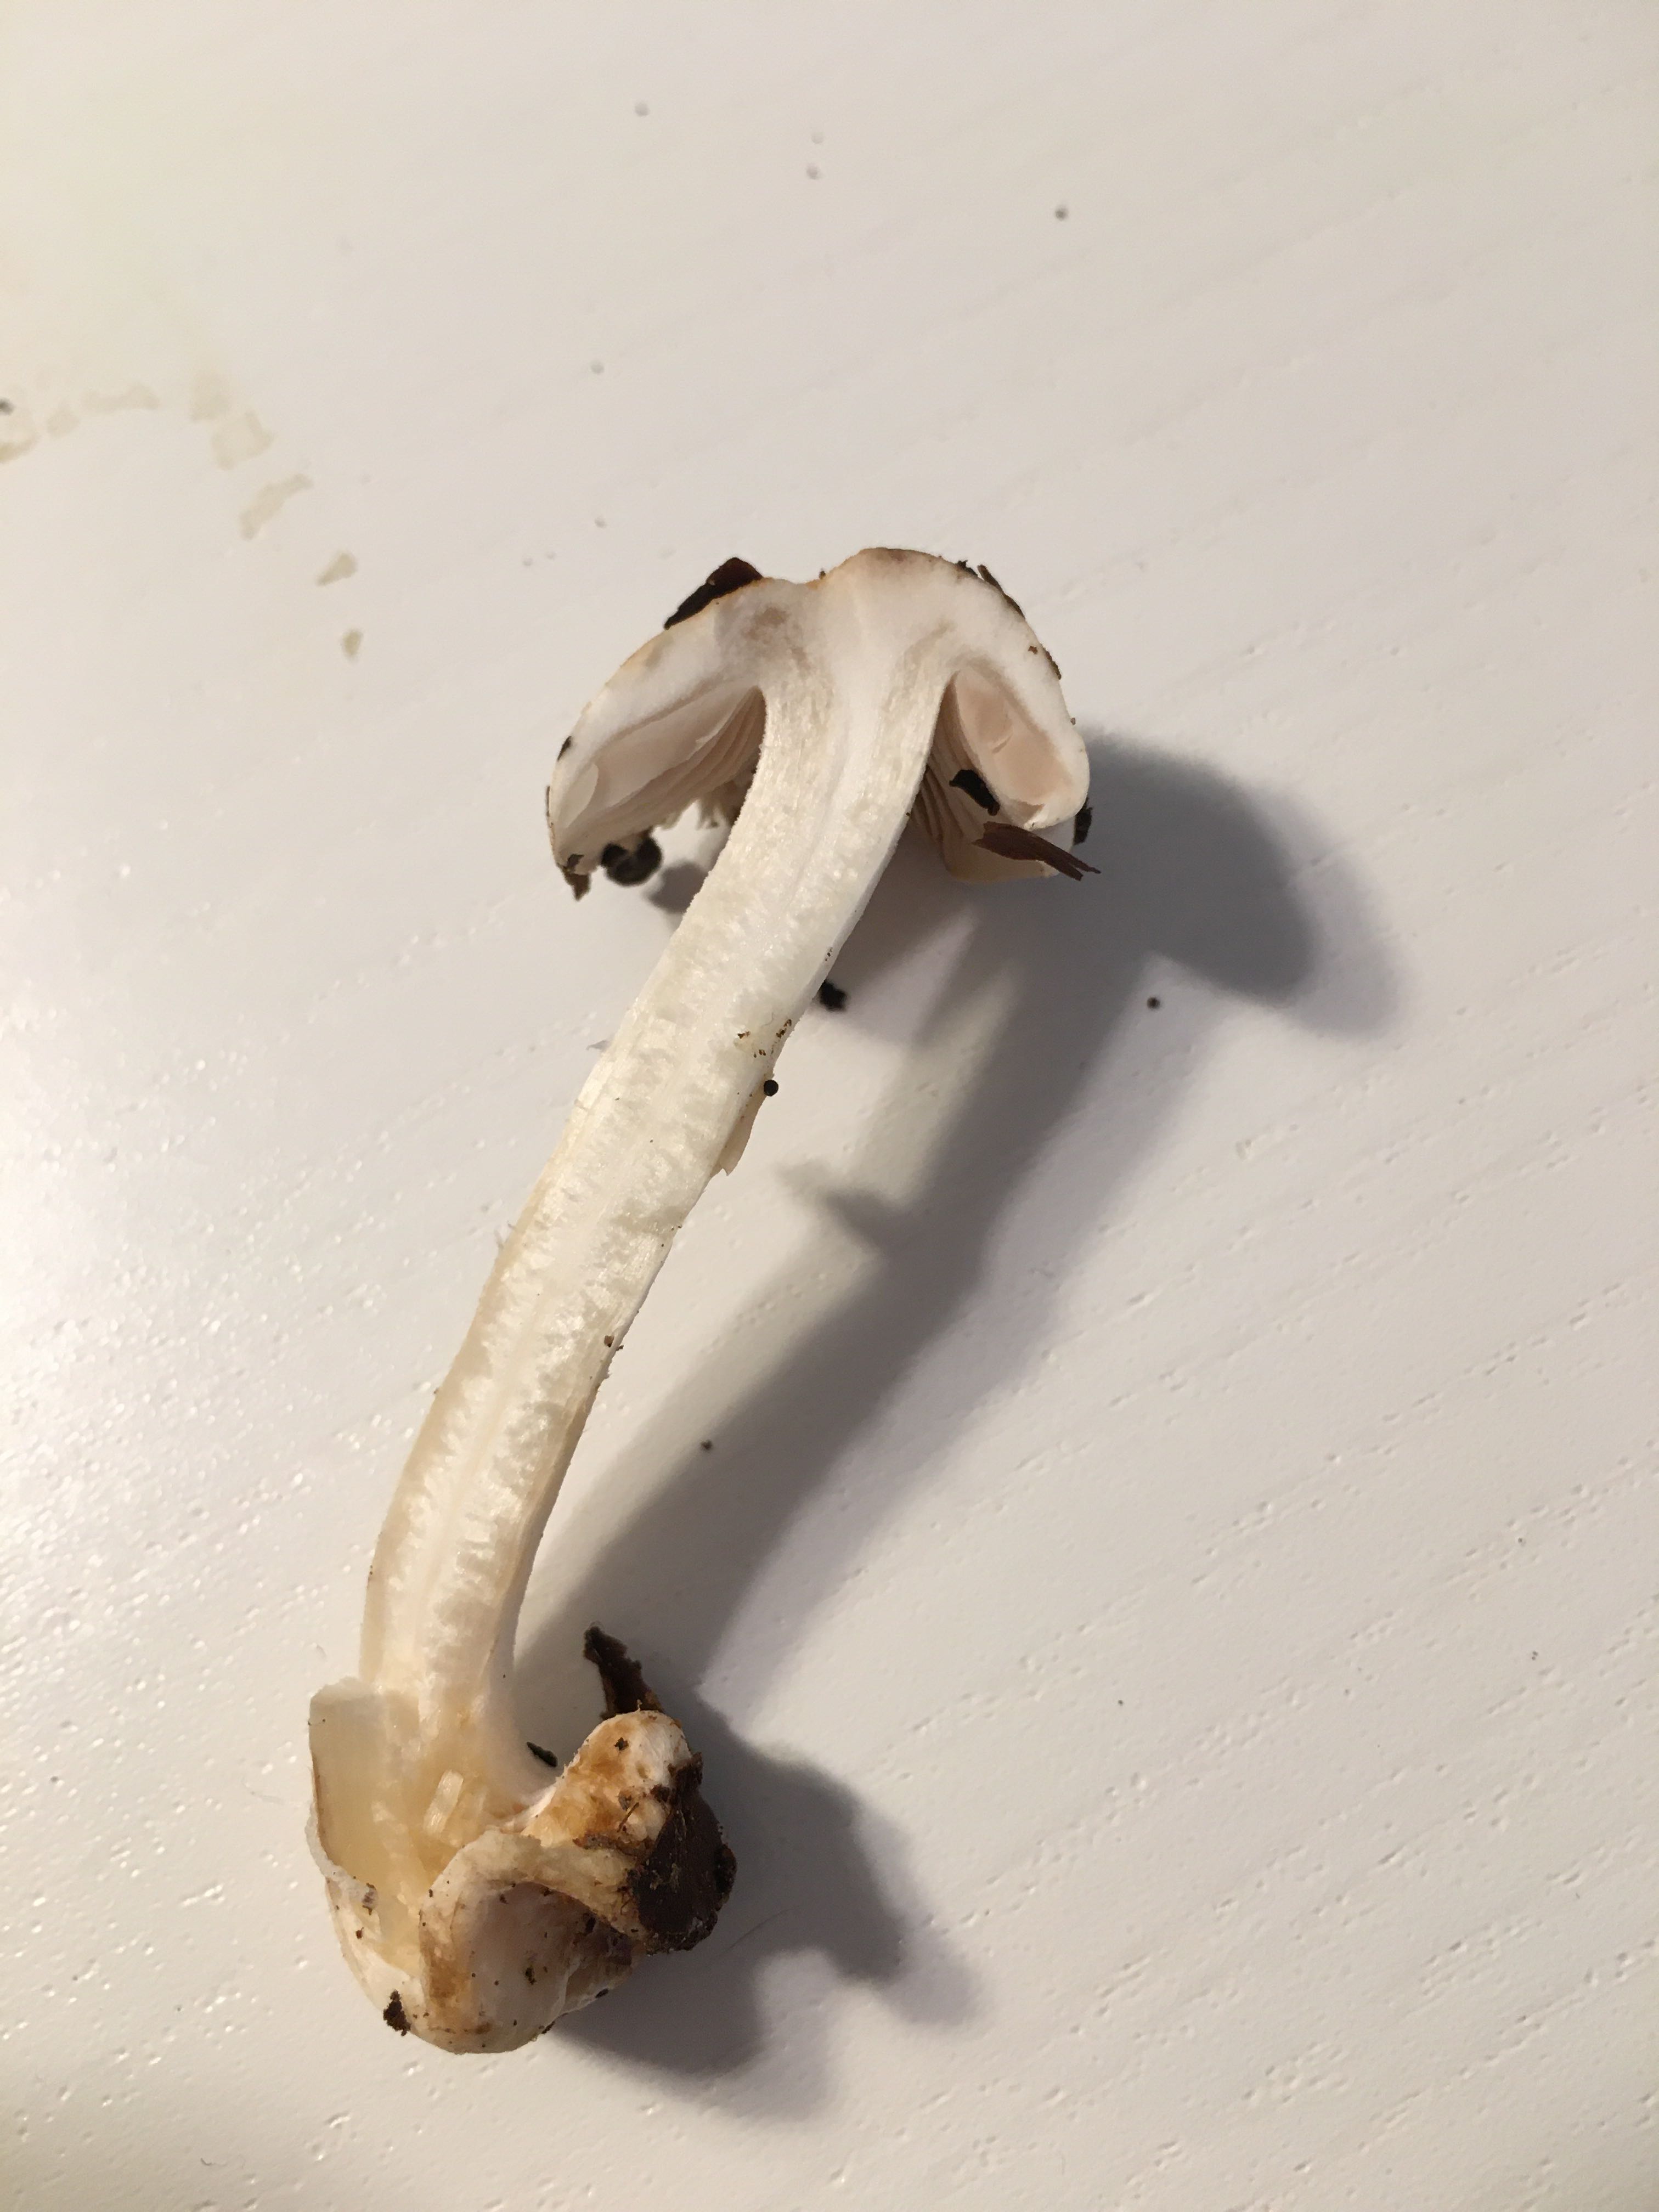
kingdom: Fungi
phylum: Basidiomycota
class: Agaricomycetes
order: Agaricales
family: Hymenogastraceae
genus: Hebeloma
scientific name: Hebeloma
